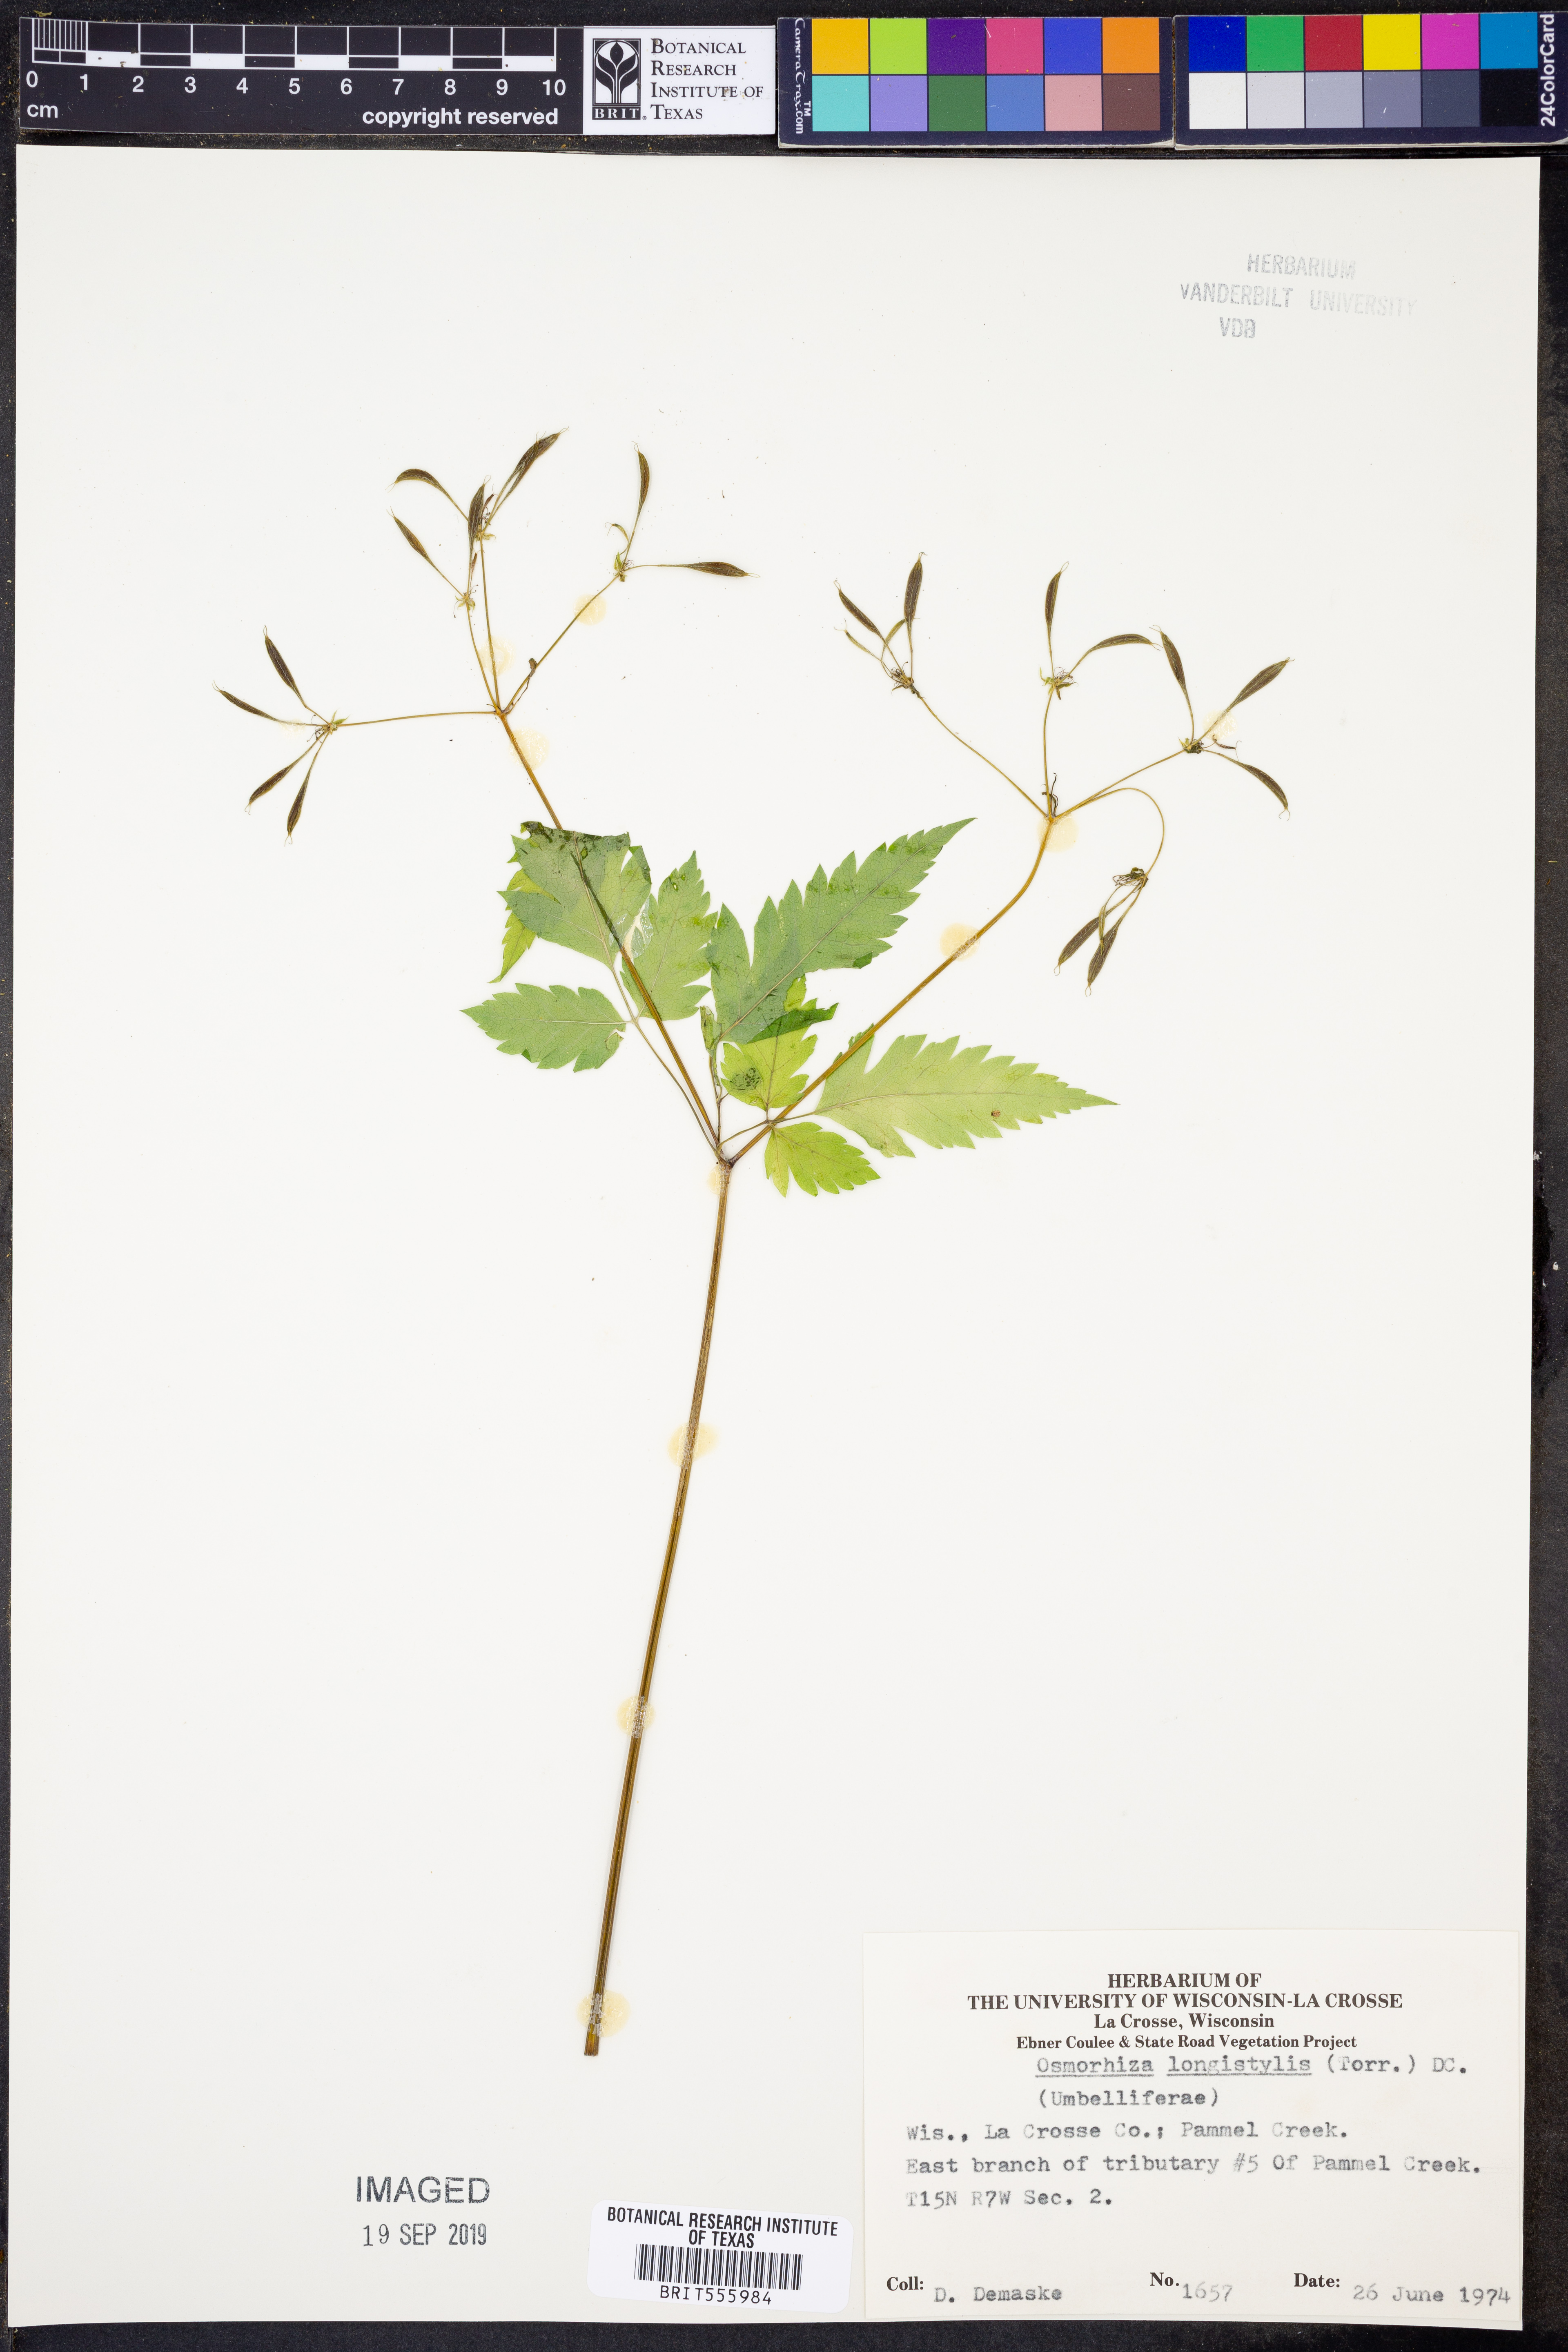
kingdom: Plantae
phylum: Tracheophyta
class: Magnoliopsida
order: Apiales
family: Apiaceae
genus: Osmorhiza
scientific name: Osmorhiza longistylis
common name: Smooth sweet cicely
